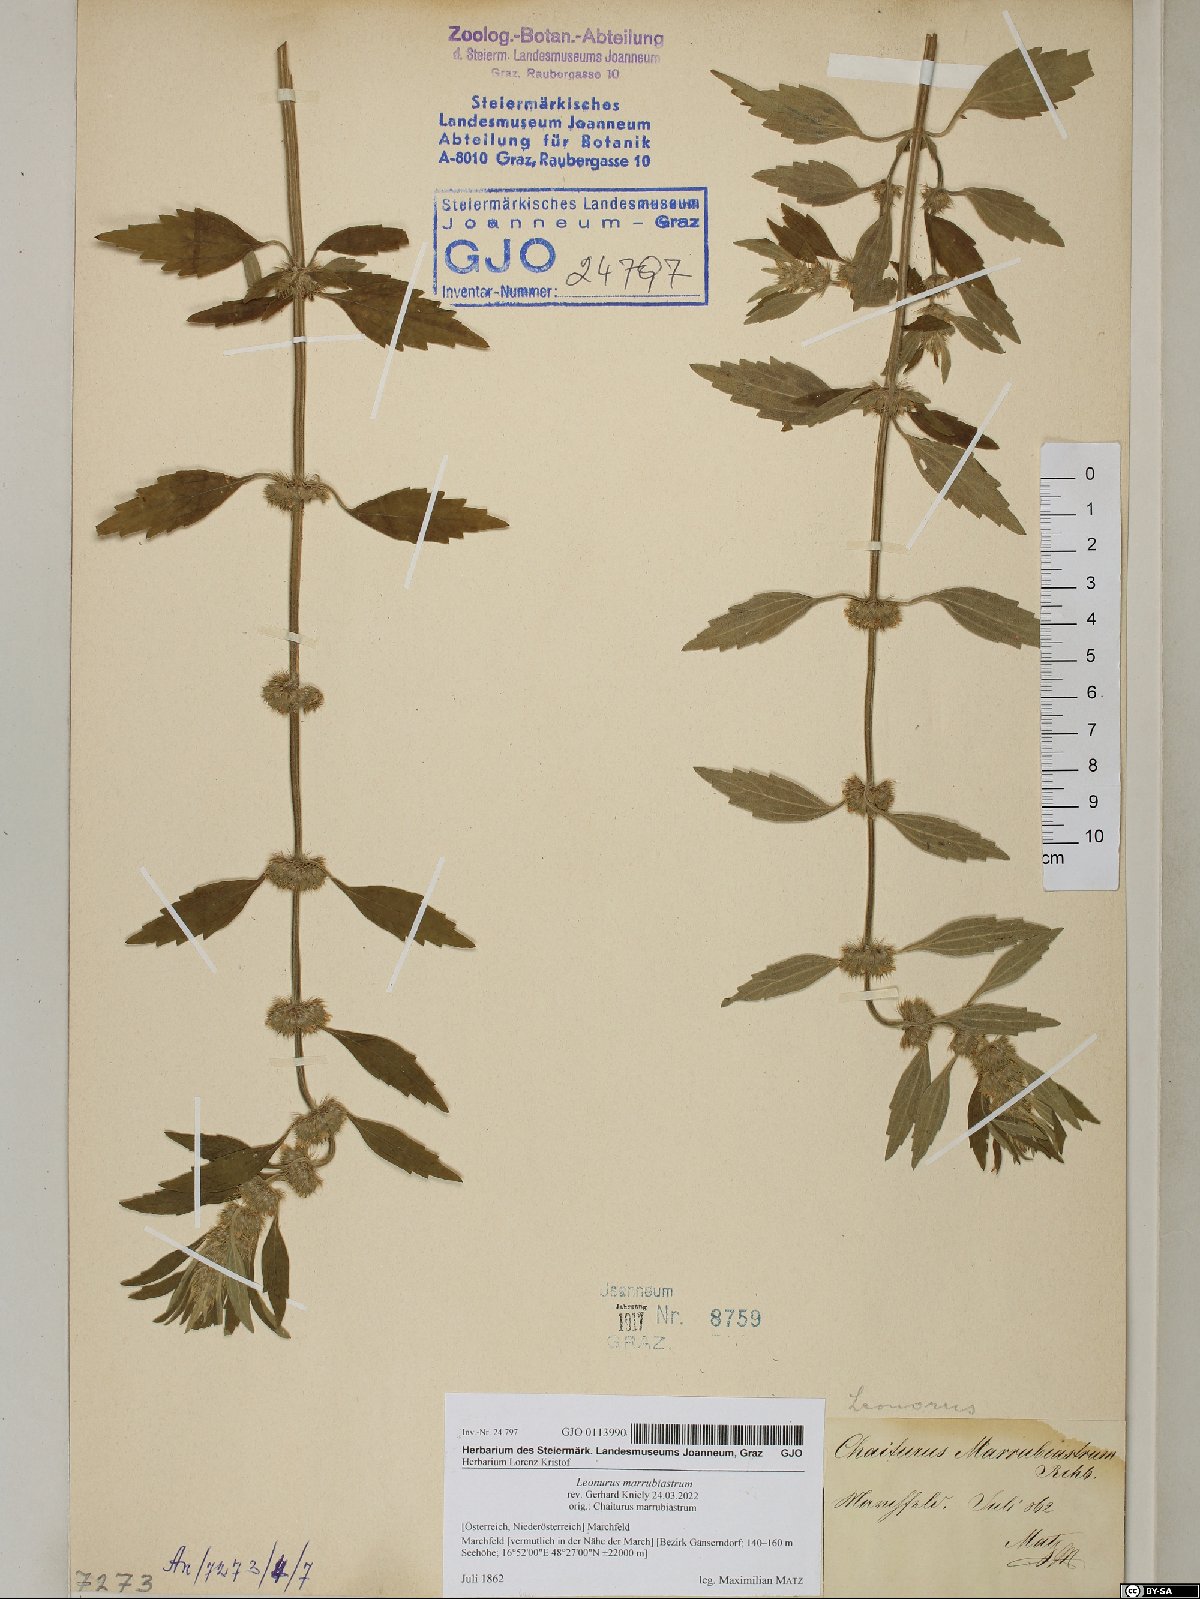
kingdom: Plantae
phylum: Tracheophyta
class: Magnoliopsida
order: Lamiales
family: Lamiaceae
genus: Chaiturus
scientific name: Chaiturus marrubiastrum
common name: Lion's tail
